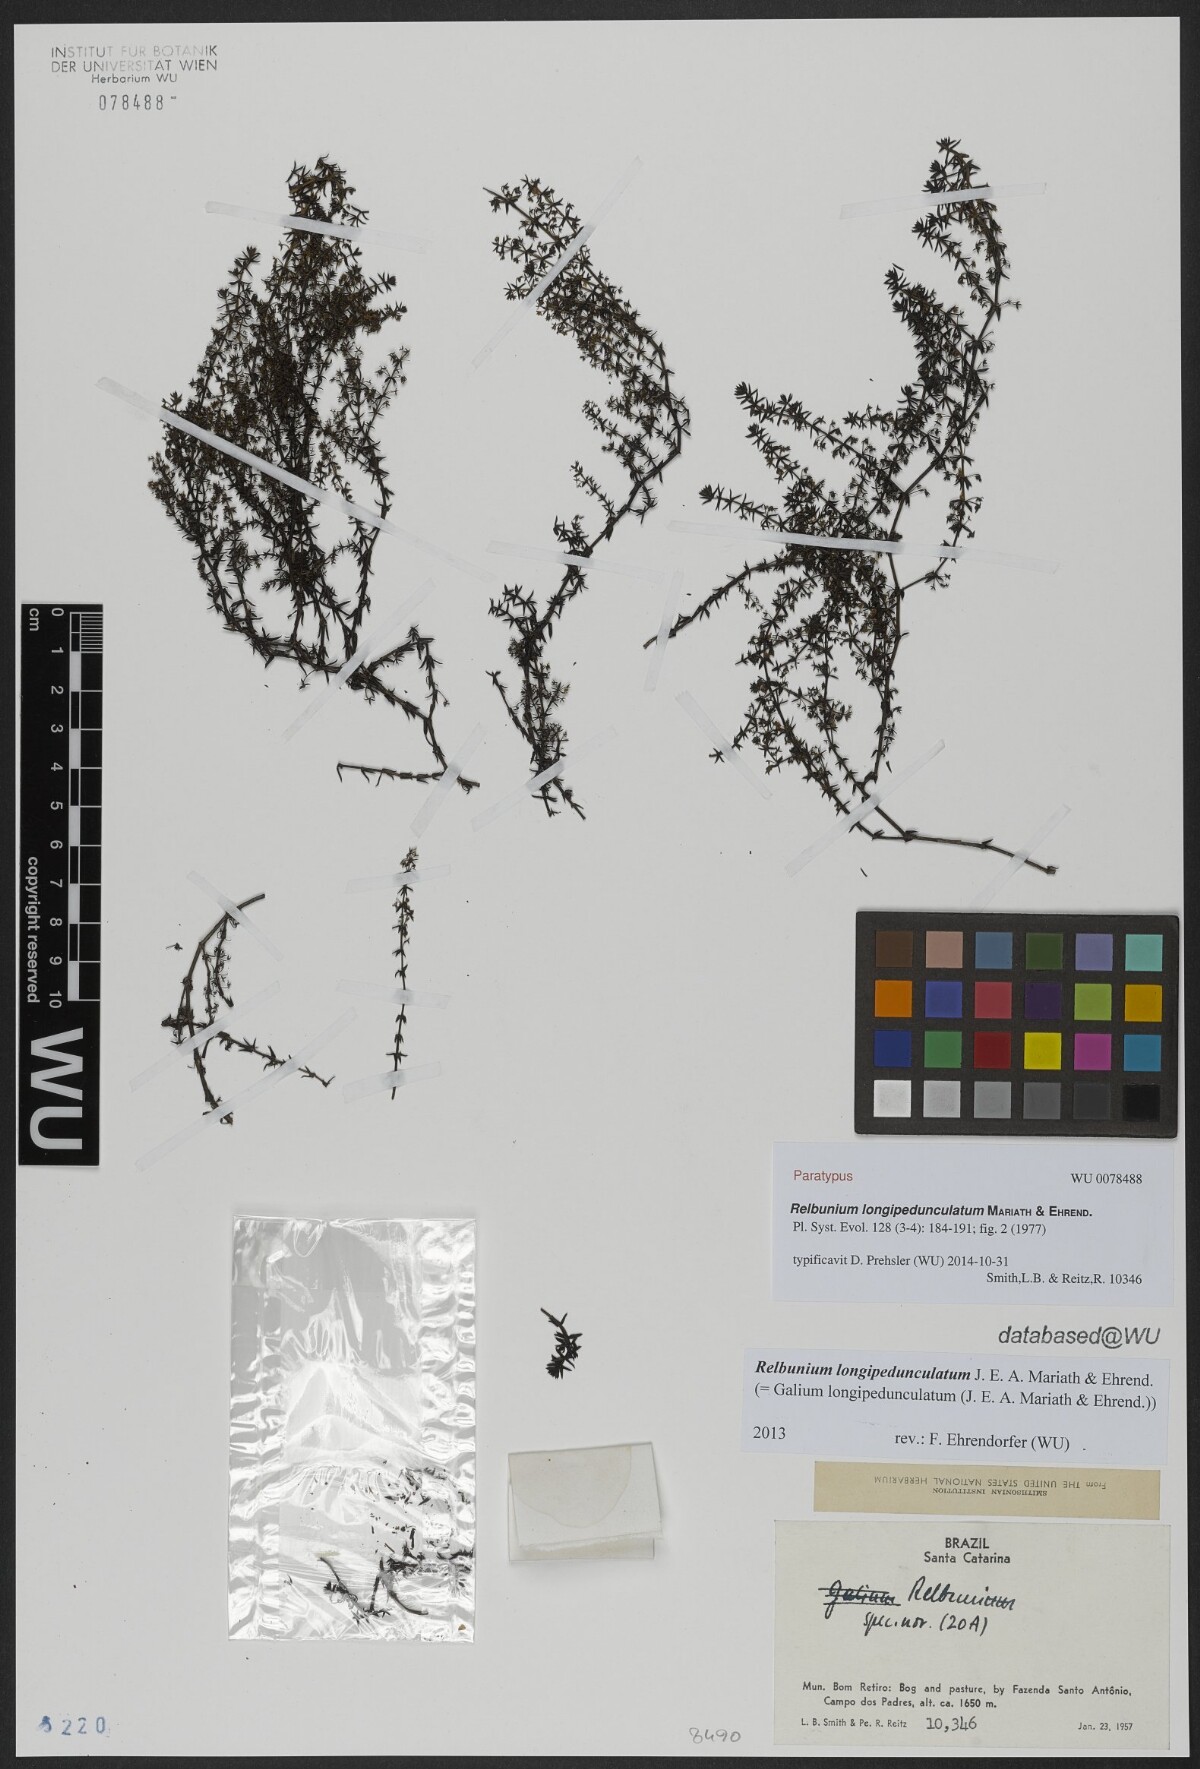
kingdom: Plantae
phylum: Tracheophyta
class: Magnoliopsida
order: Gentianales
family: Rubiaceae
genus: Galium
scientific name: Galium longipedunculatum
